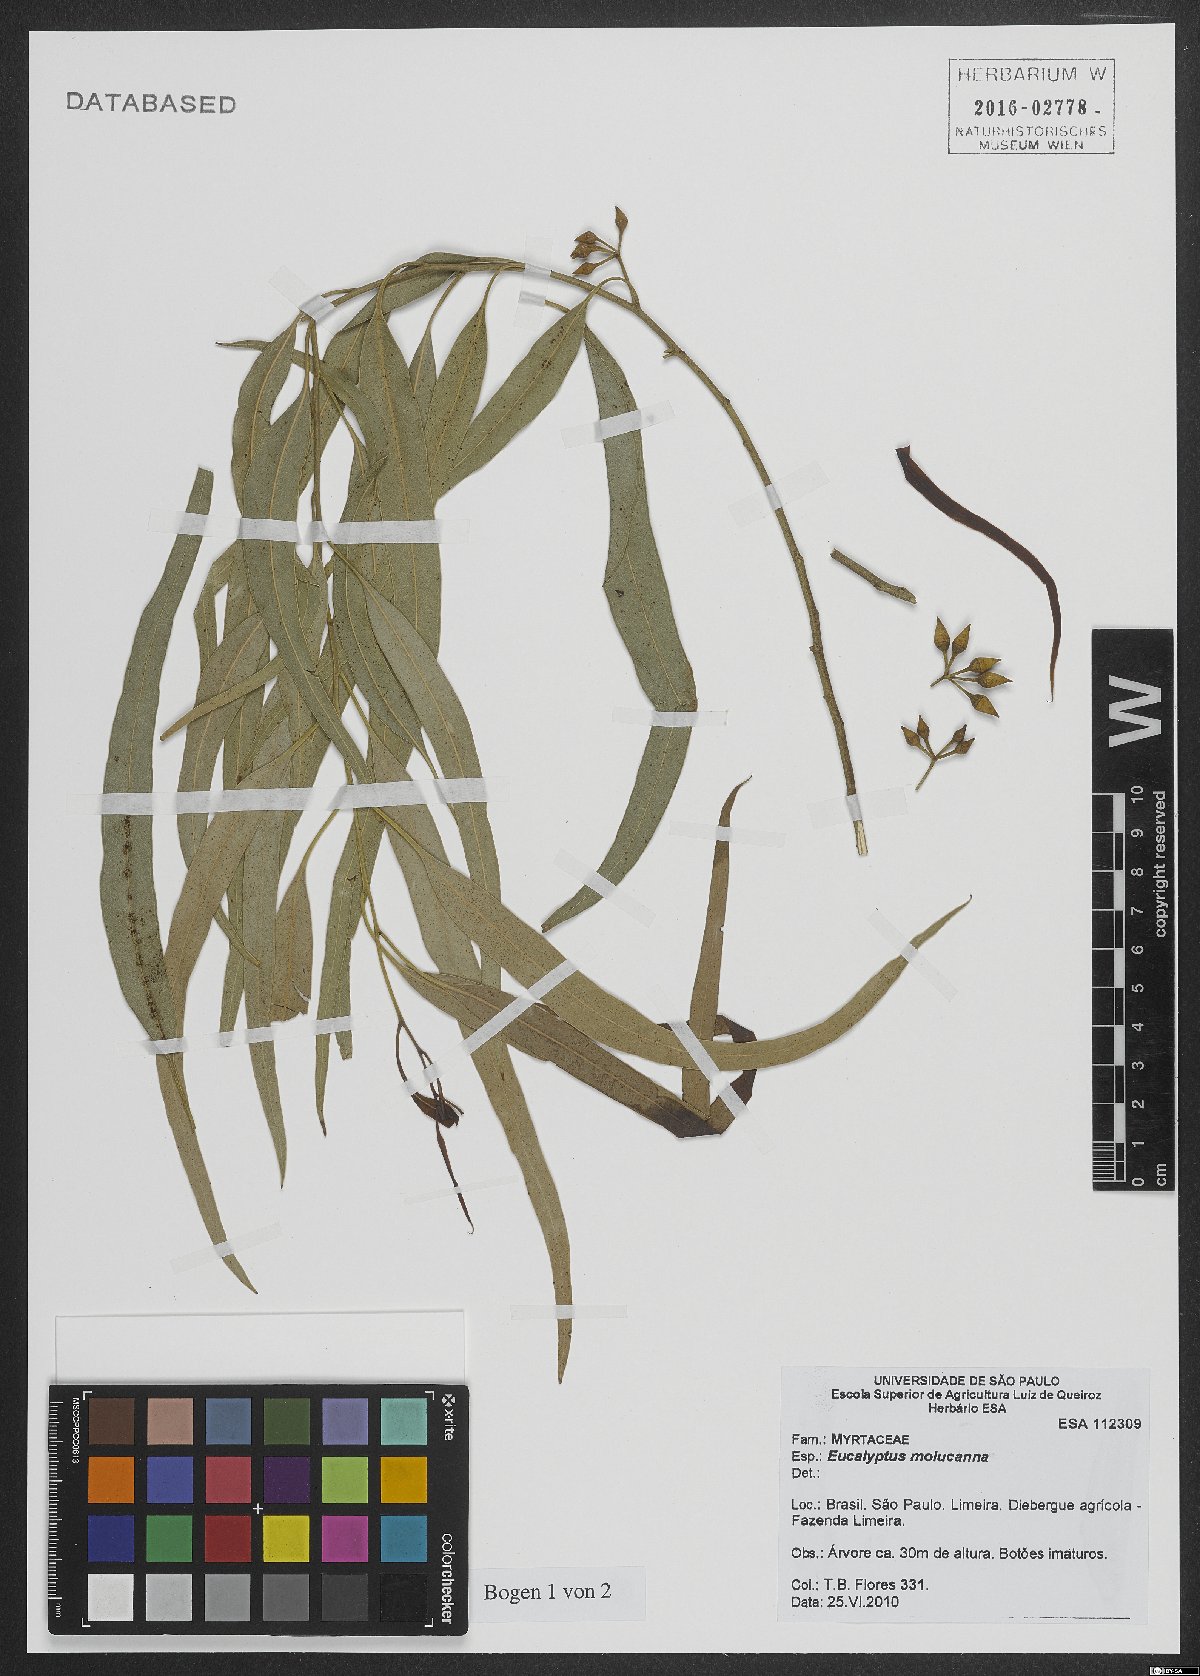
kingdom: Plantae
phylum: Tracheophyta
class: Magnoliopsida
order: Myrtales
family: Myrtaceae
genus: Eucalyptus
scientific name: Eucalyptus moluccana
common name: Grey-box
